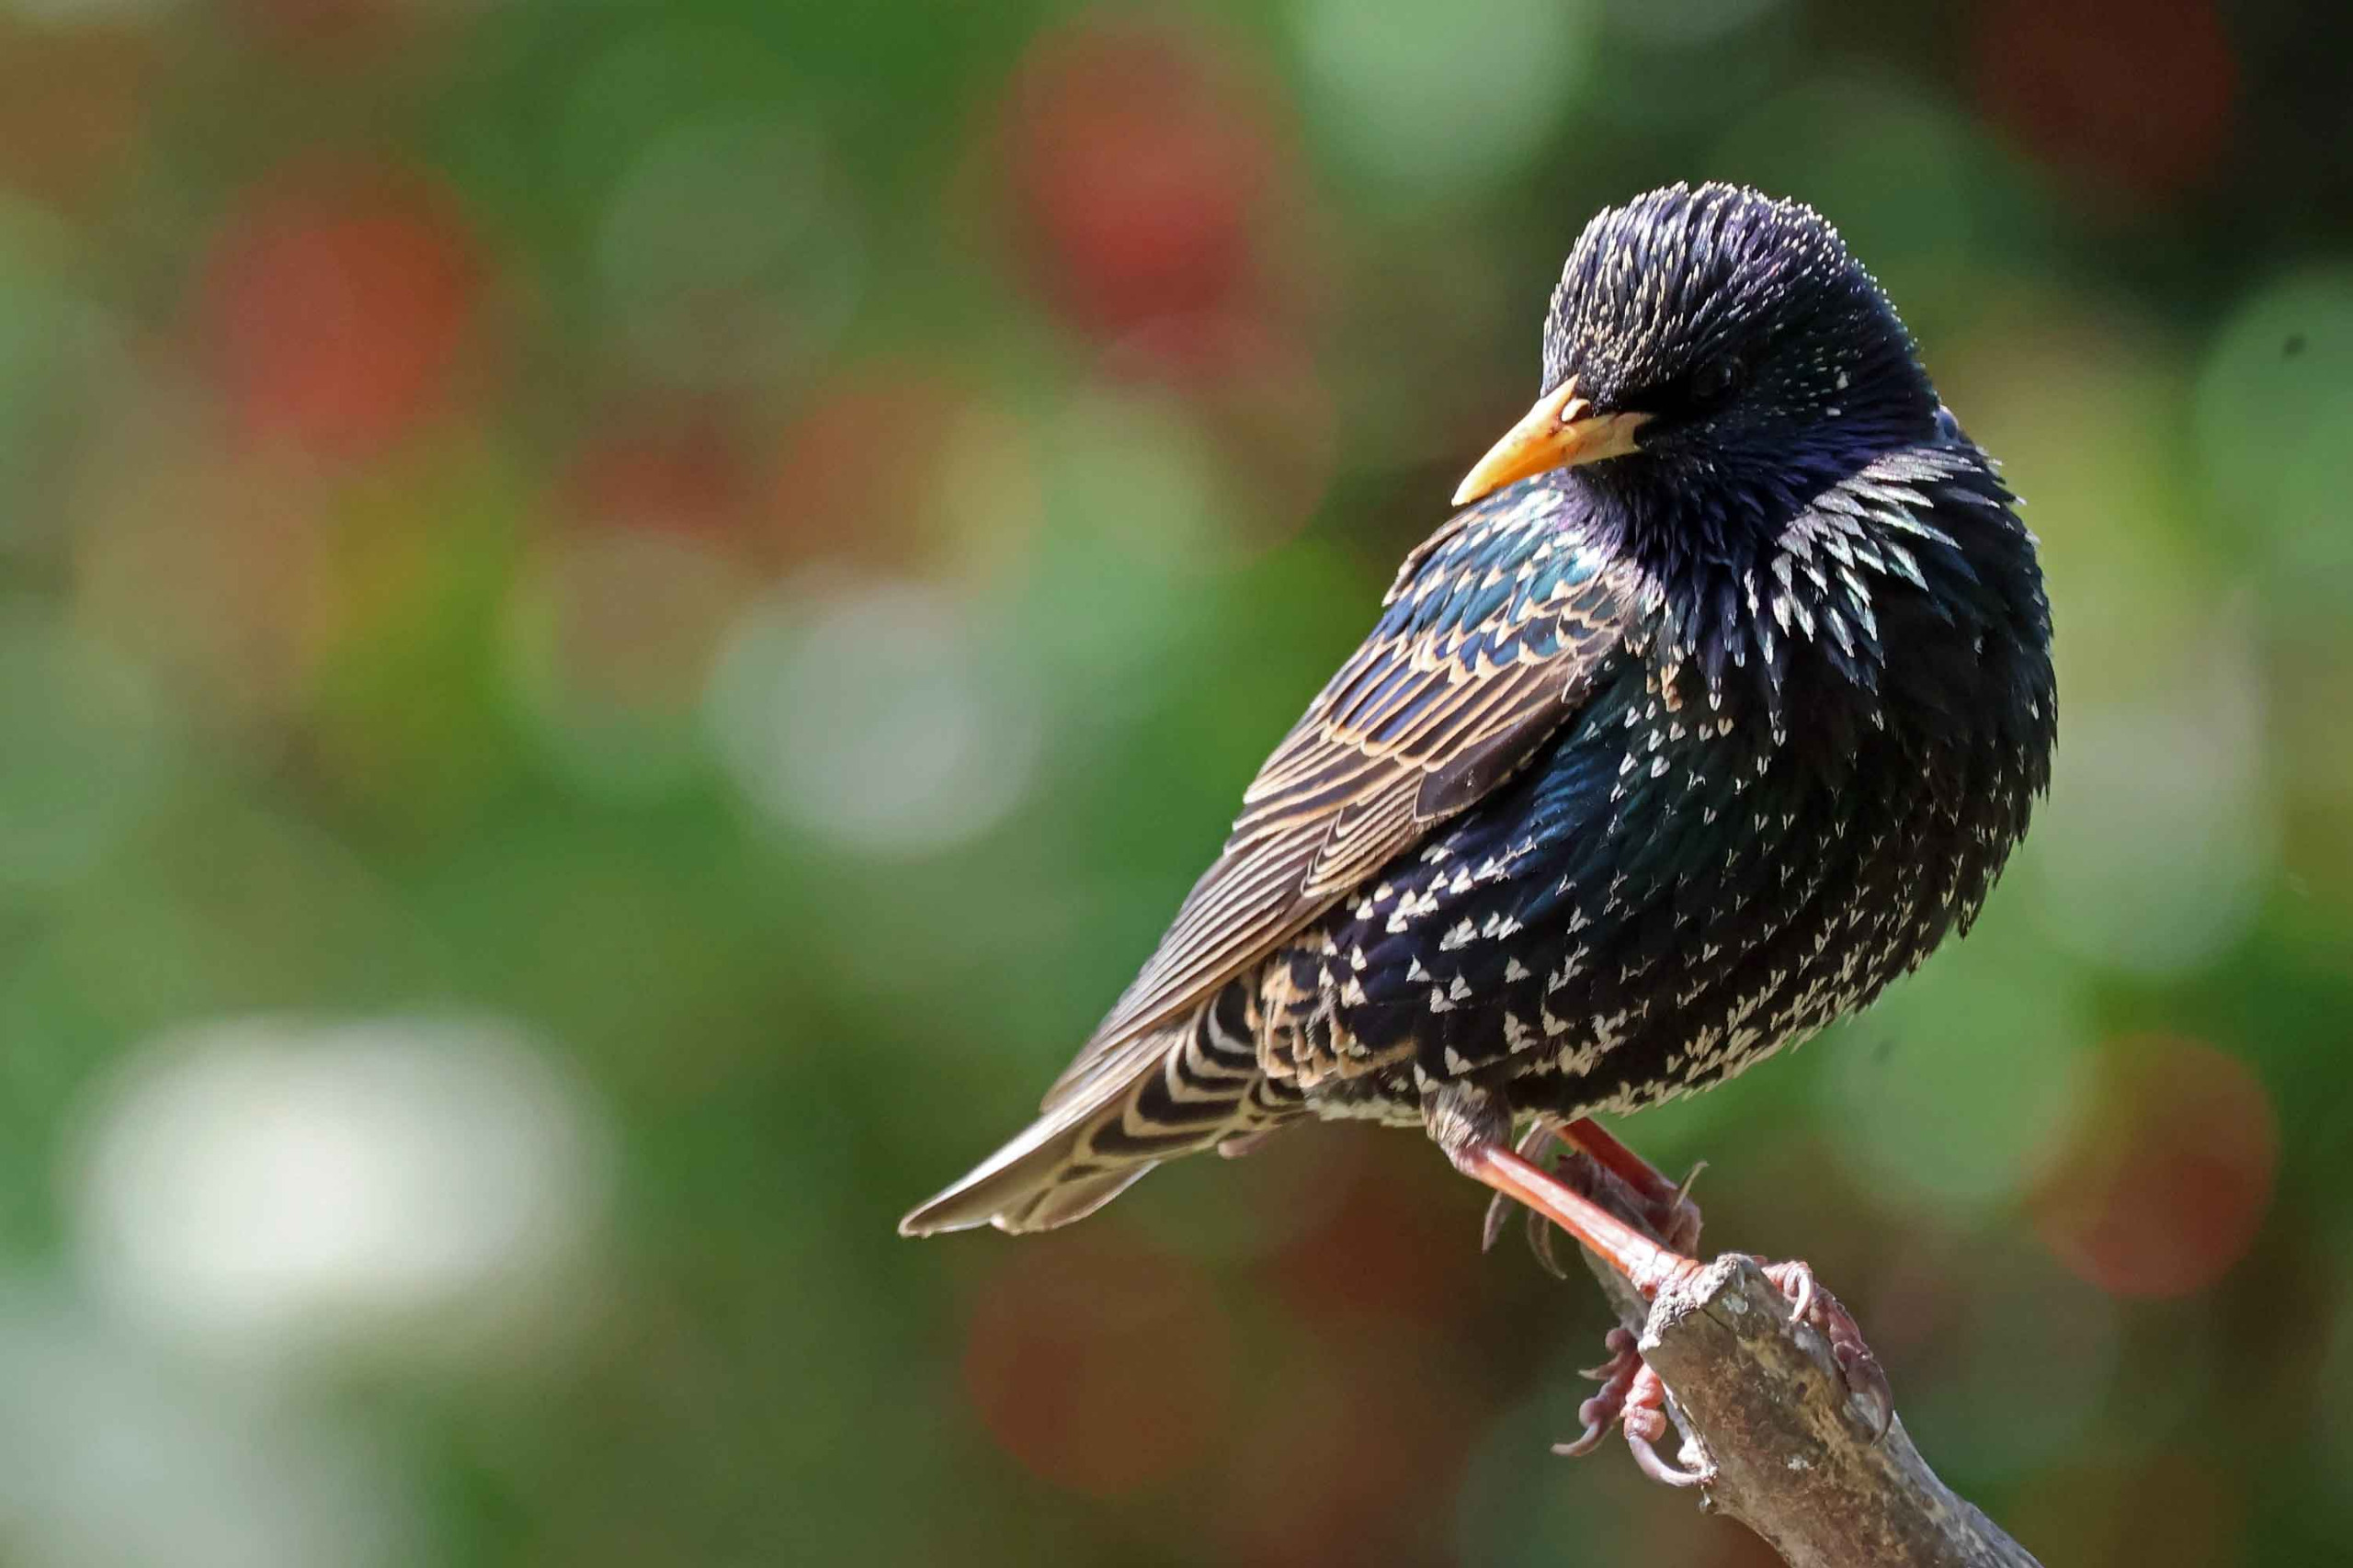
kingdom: Animalia
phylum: Chordata
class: Aves
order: Passeriformes
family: Sturnidae
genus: Sturnus
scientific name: Sturnus vulgaris
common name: Stær
